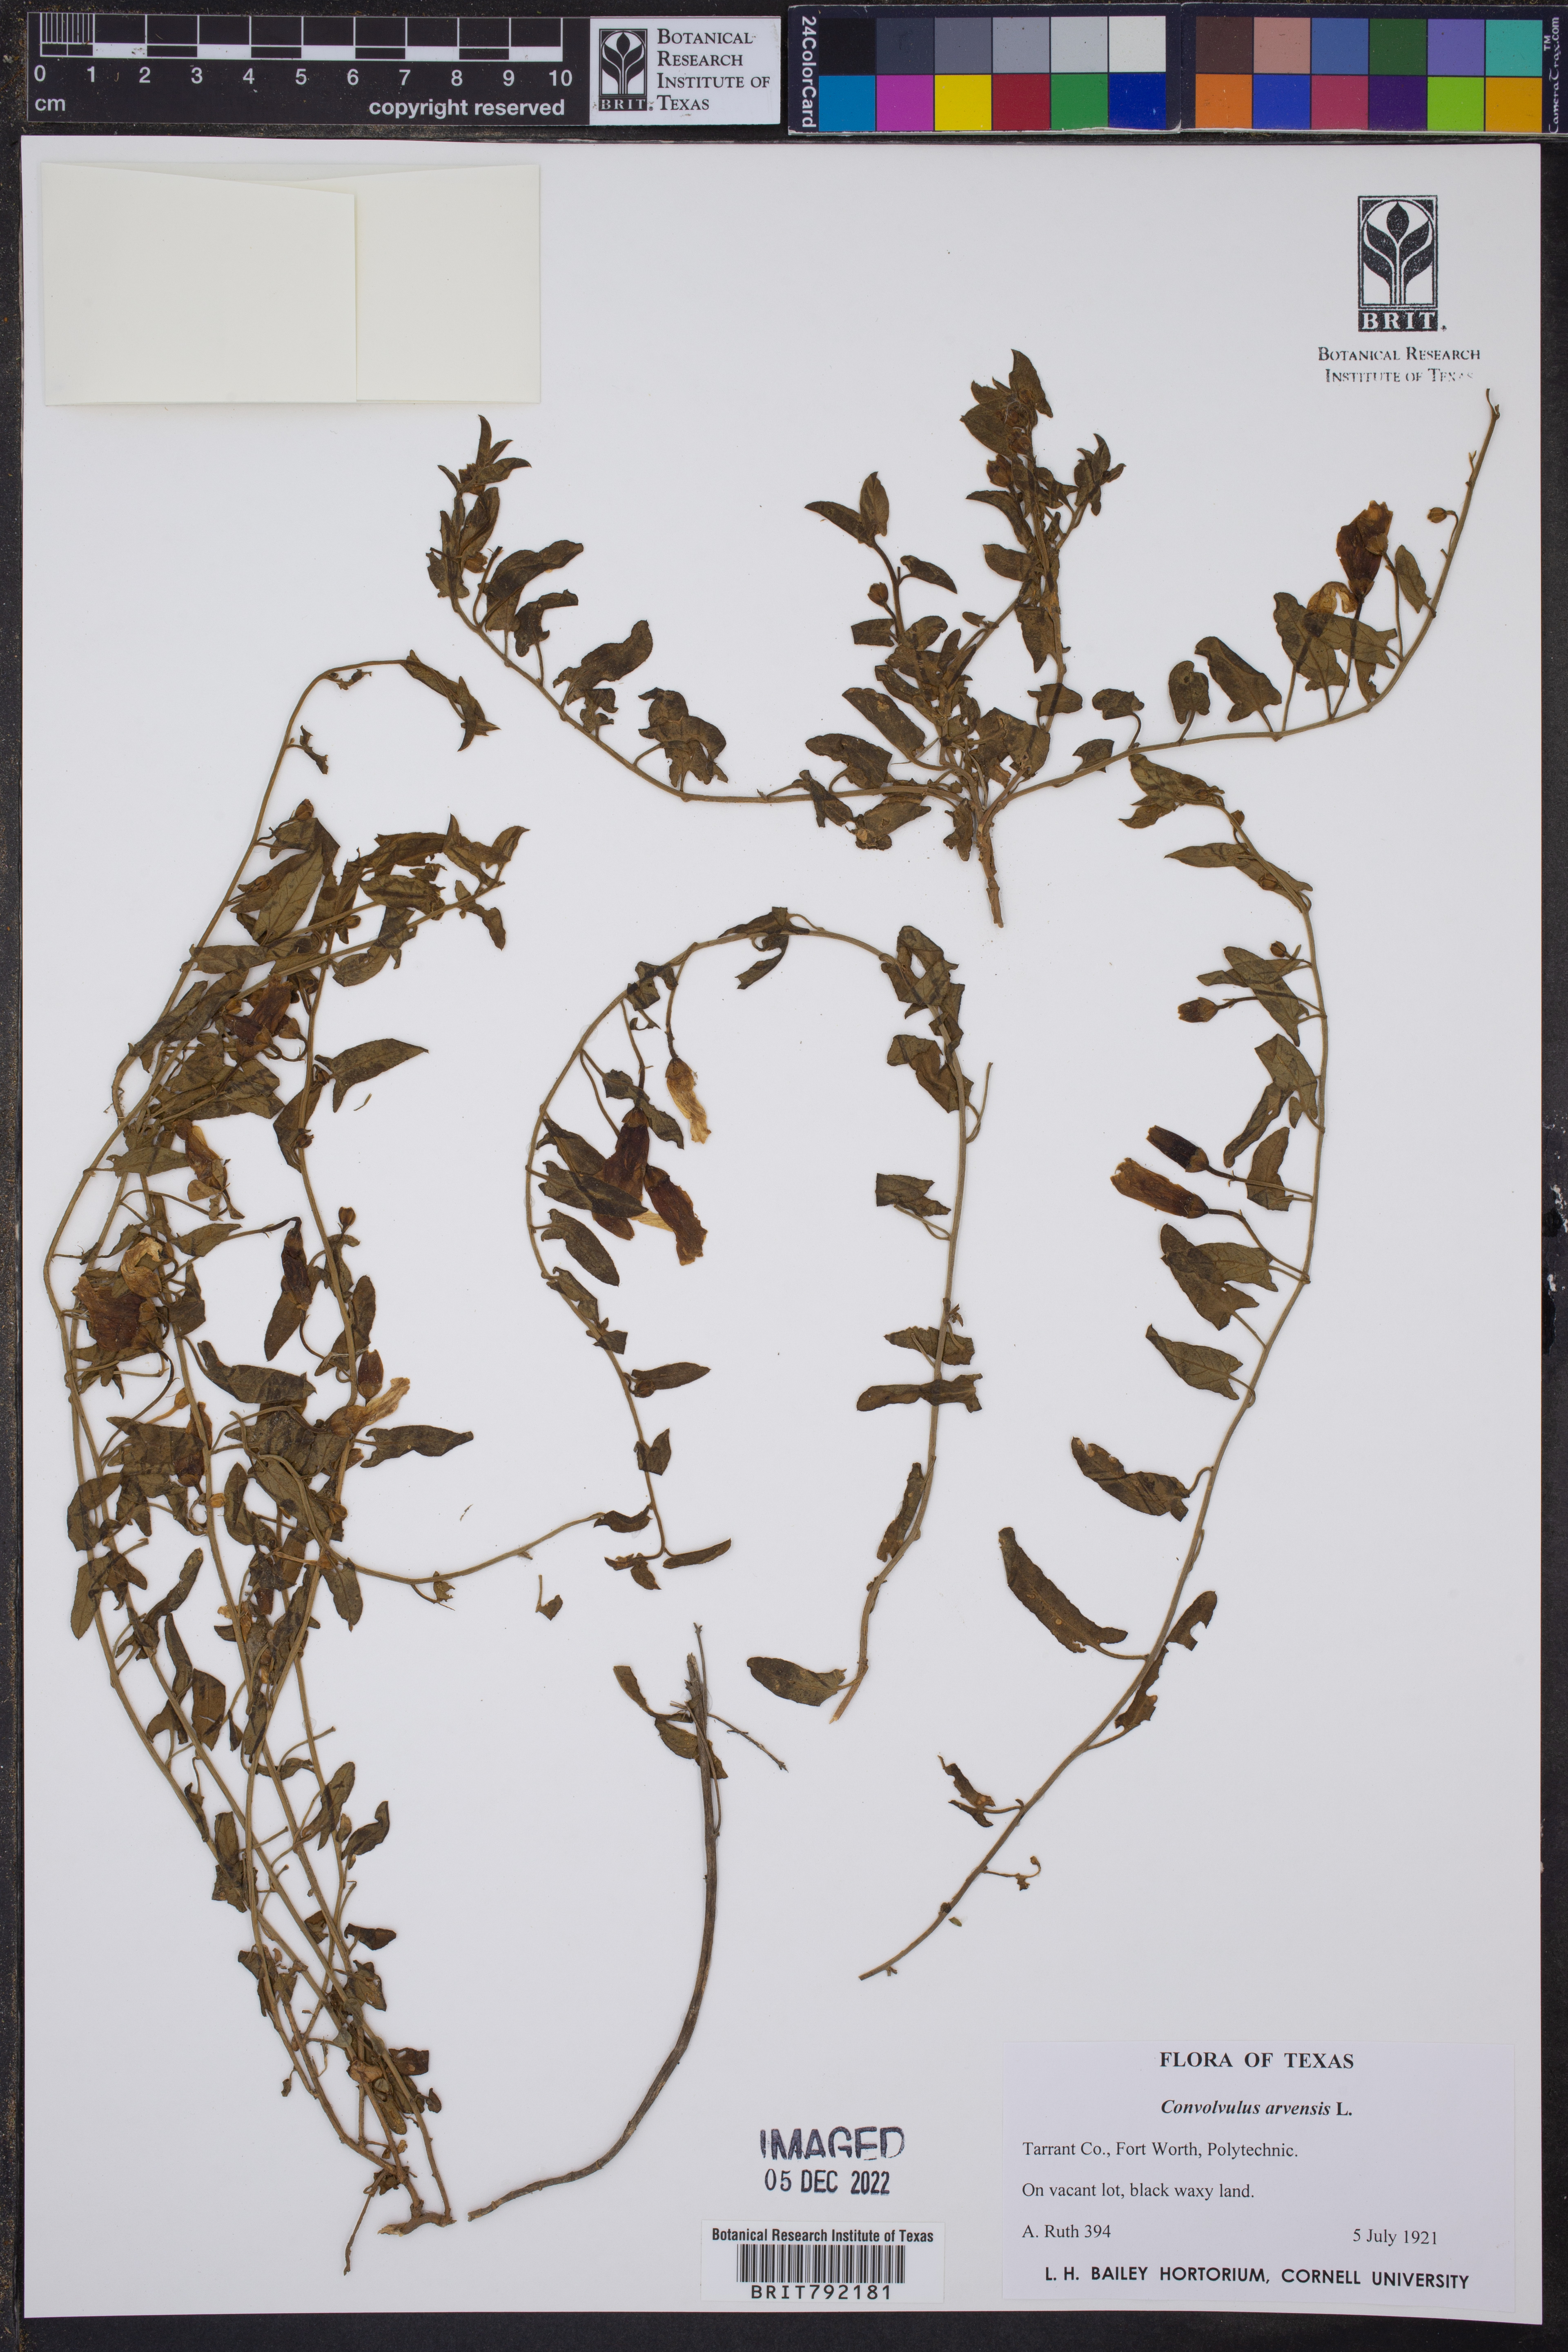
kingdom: Plantae
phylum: Tracheophyta
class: Magnoliopsida
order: Solanales
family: Convolvulaceae
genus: Convolvulus
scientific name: Convolvulus arvensis
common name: Field bindweed
